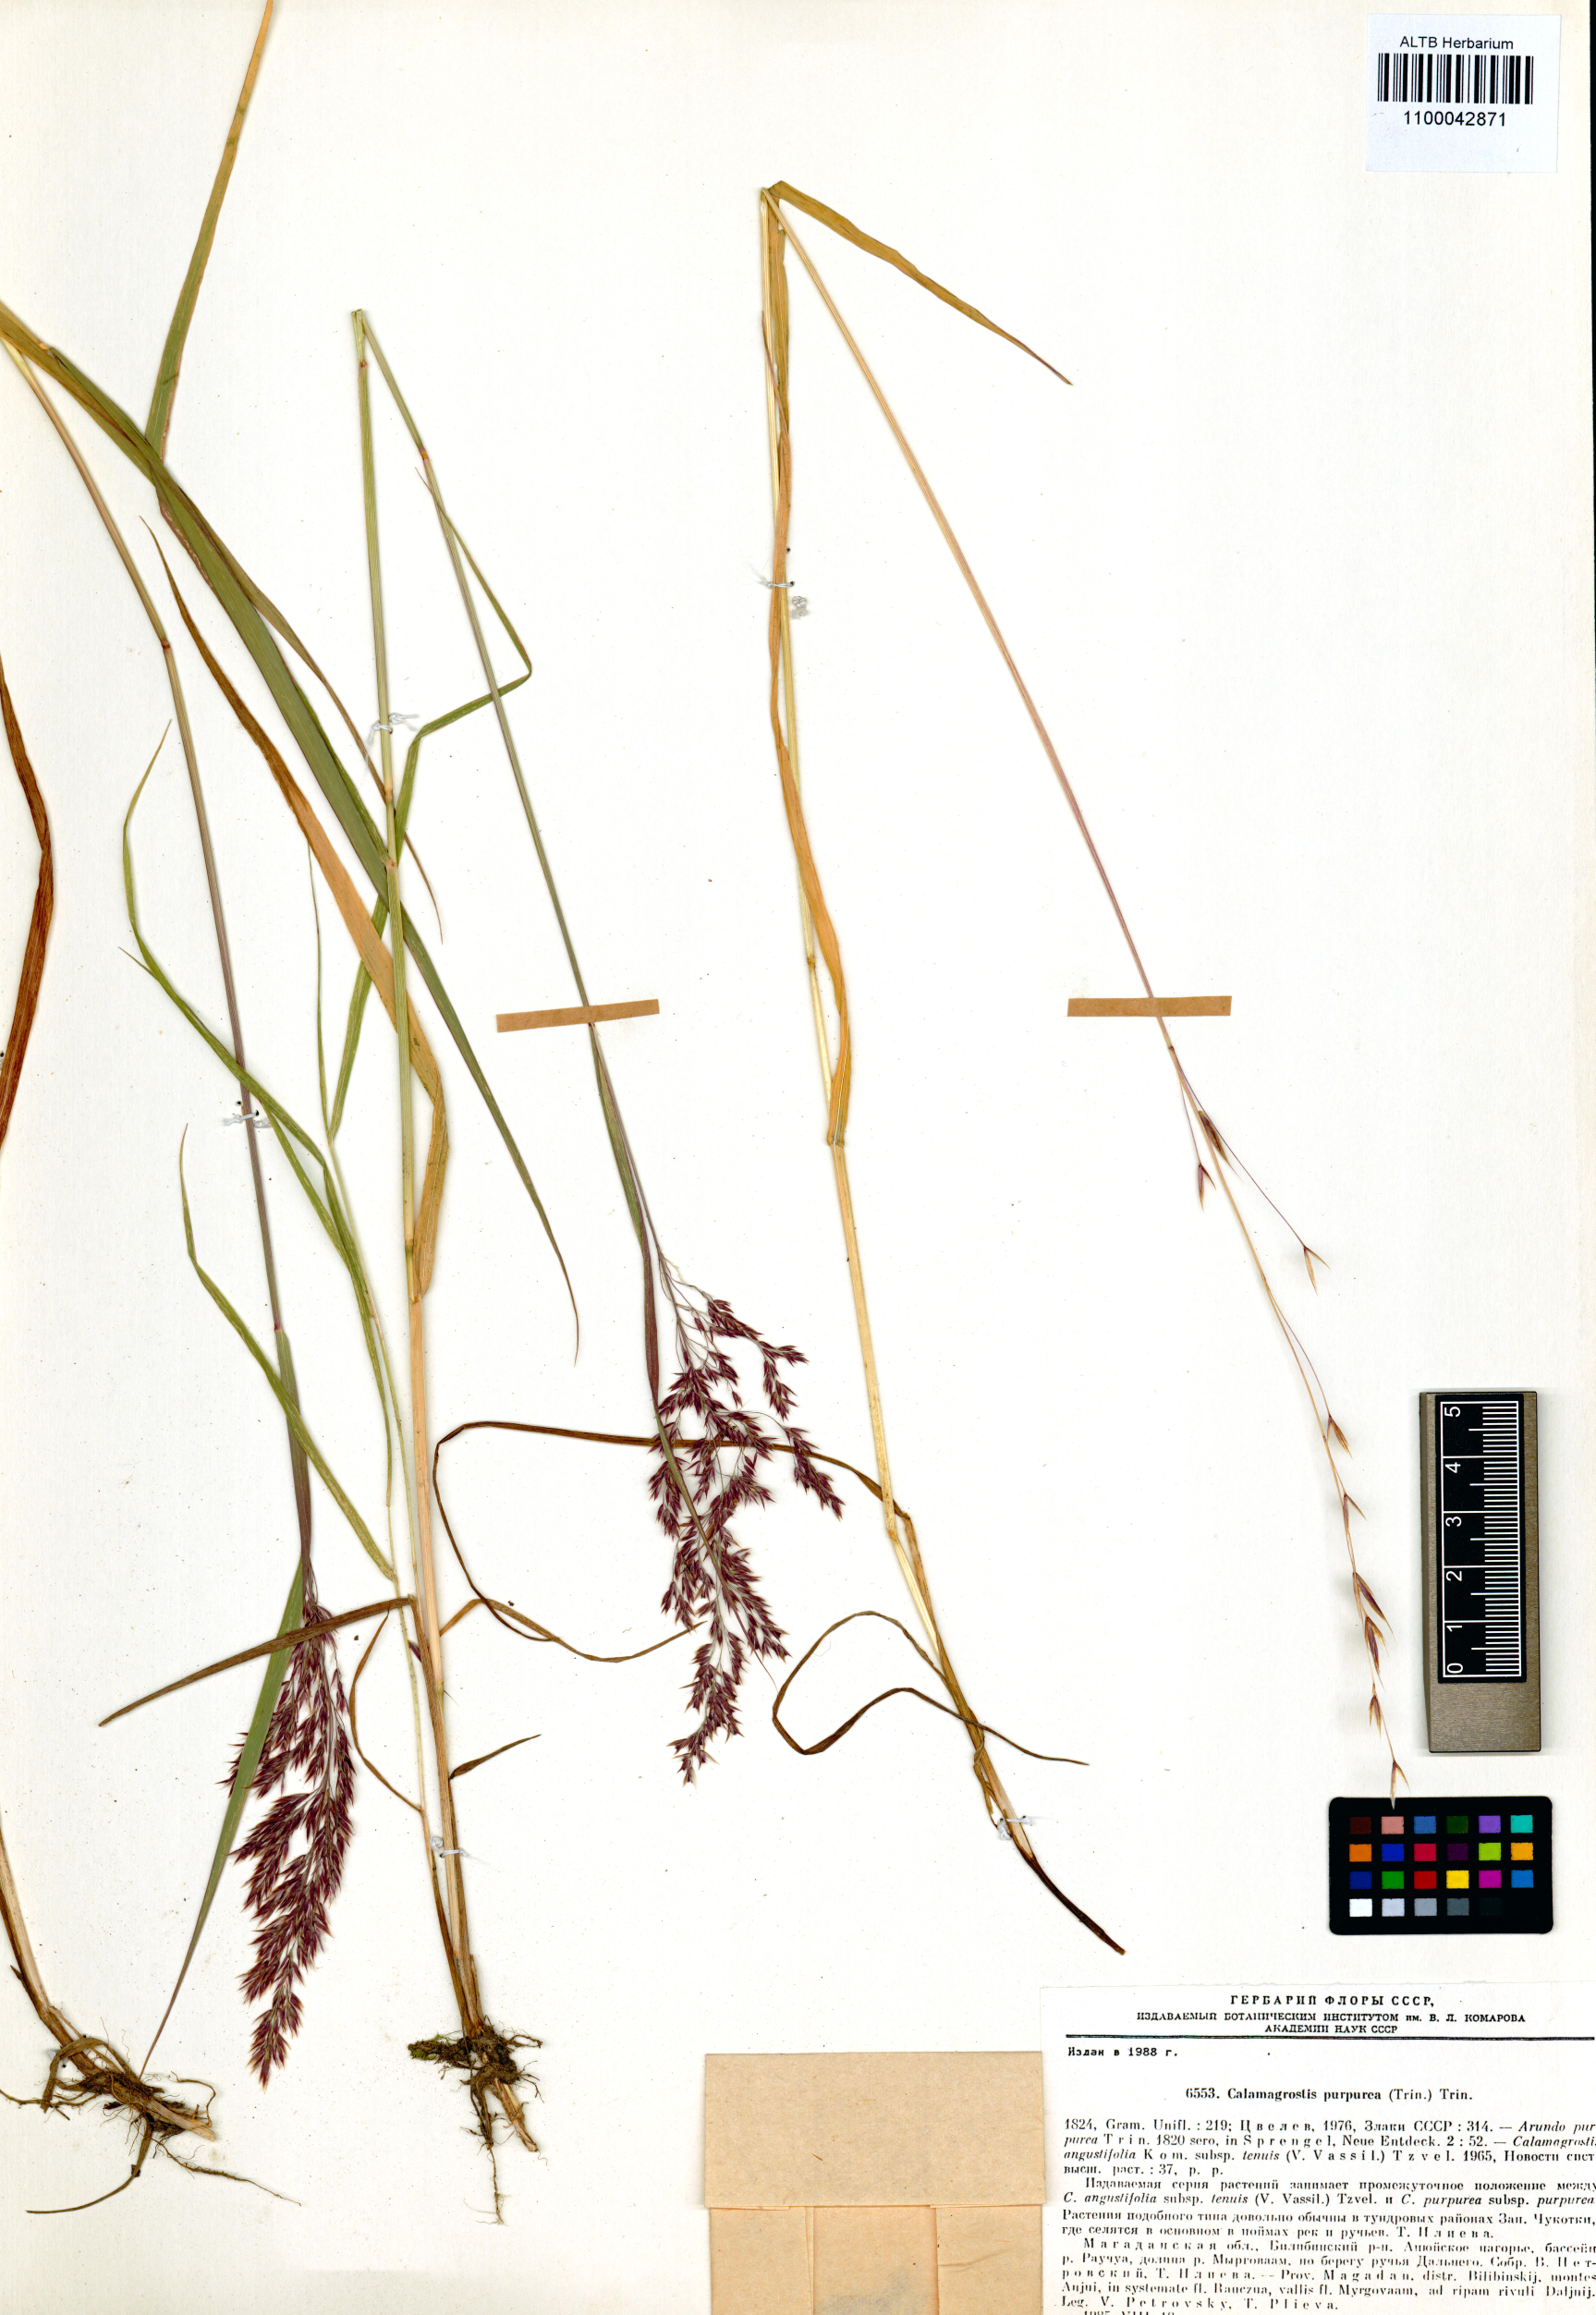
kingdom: Plantae
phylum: Tracheophyta
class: Liliopsida
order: Poales
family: Poaceae
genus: Calamagrostis
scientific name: Calamagrostis purpurea
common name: Scandinavian small-reed
